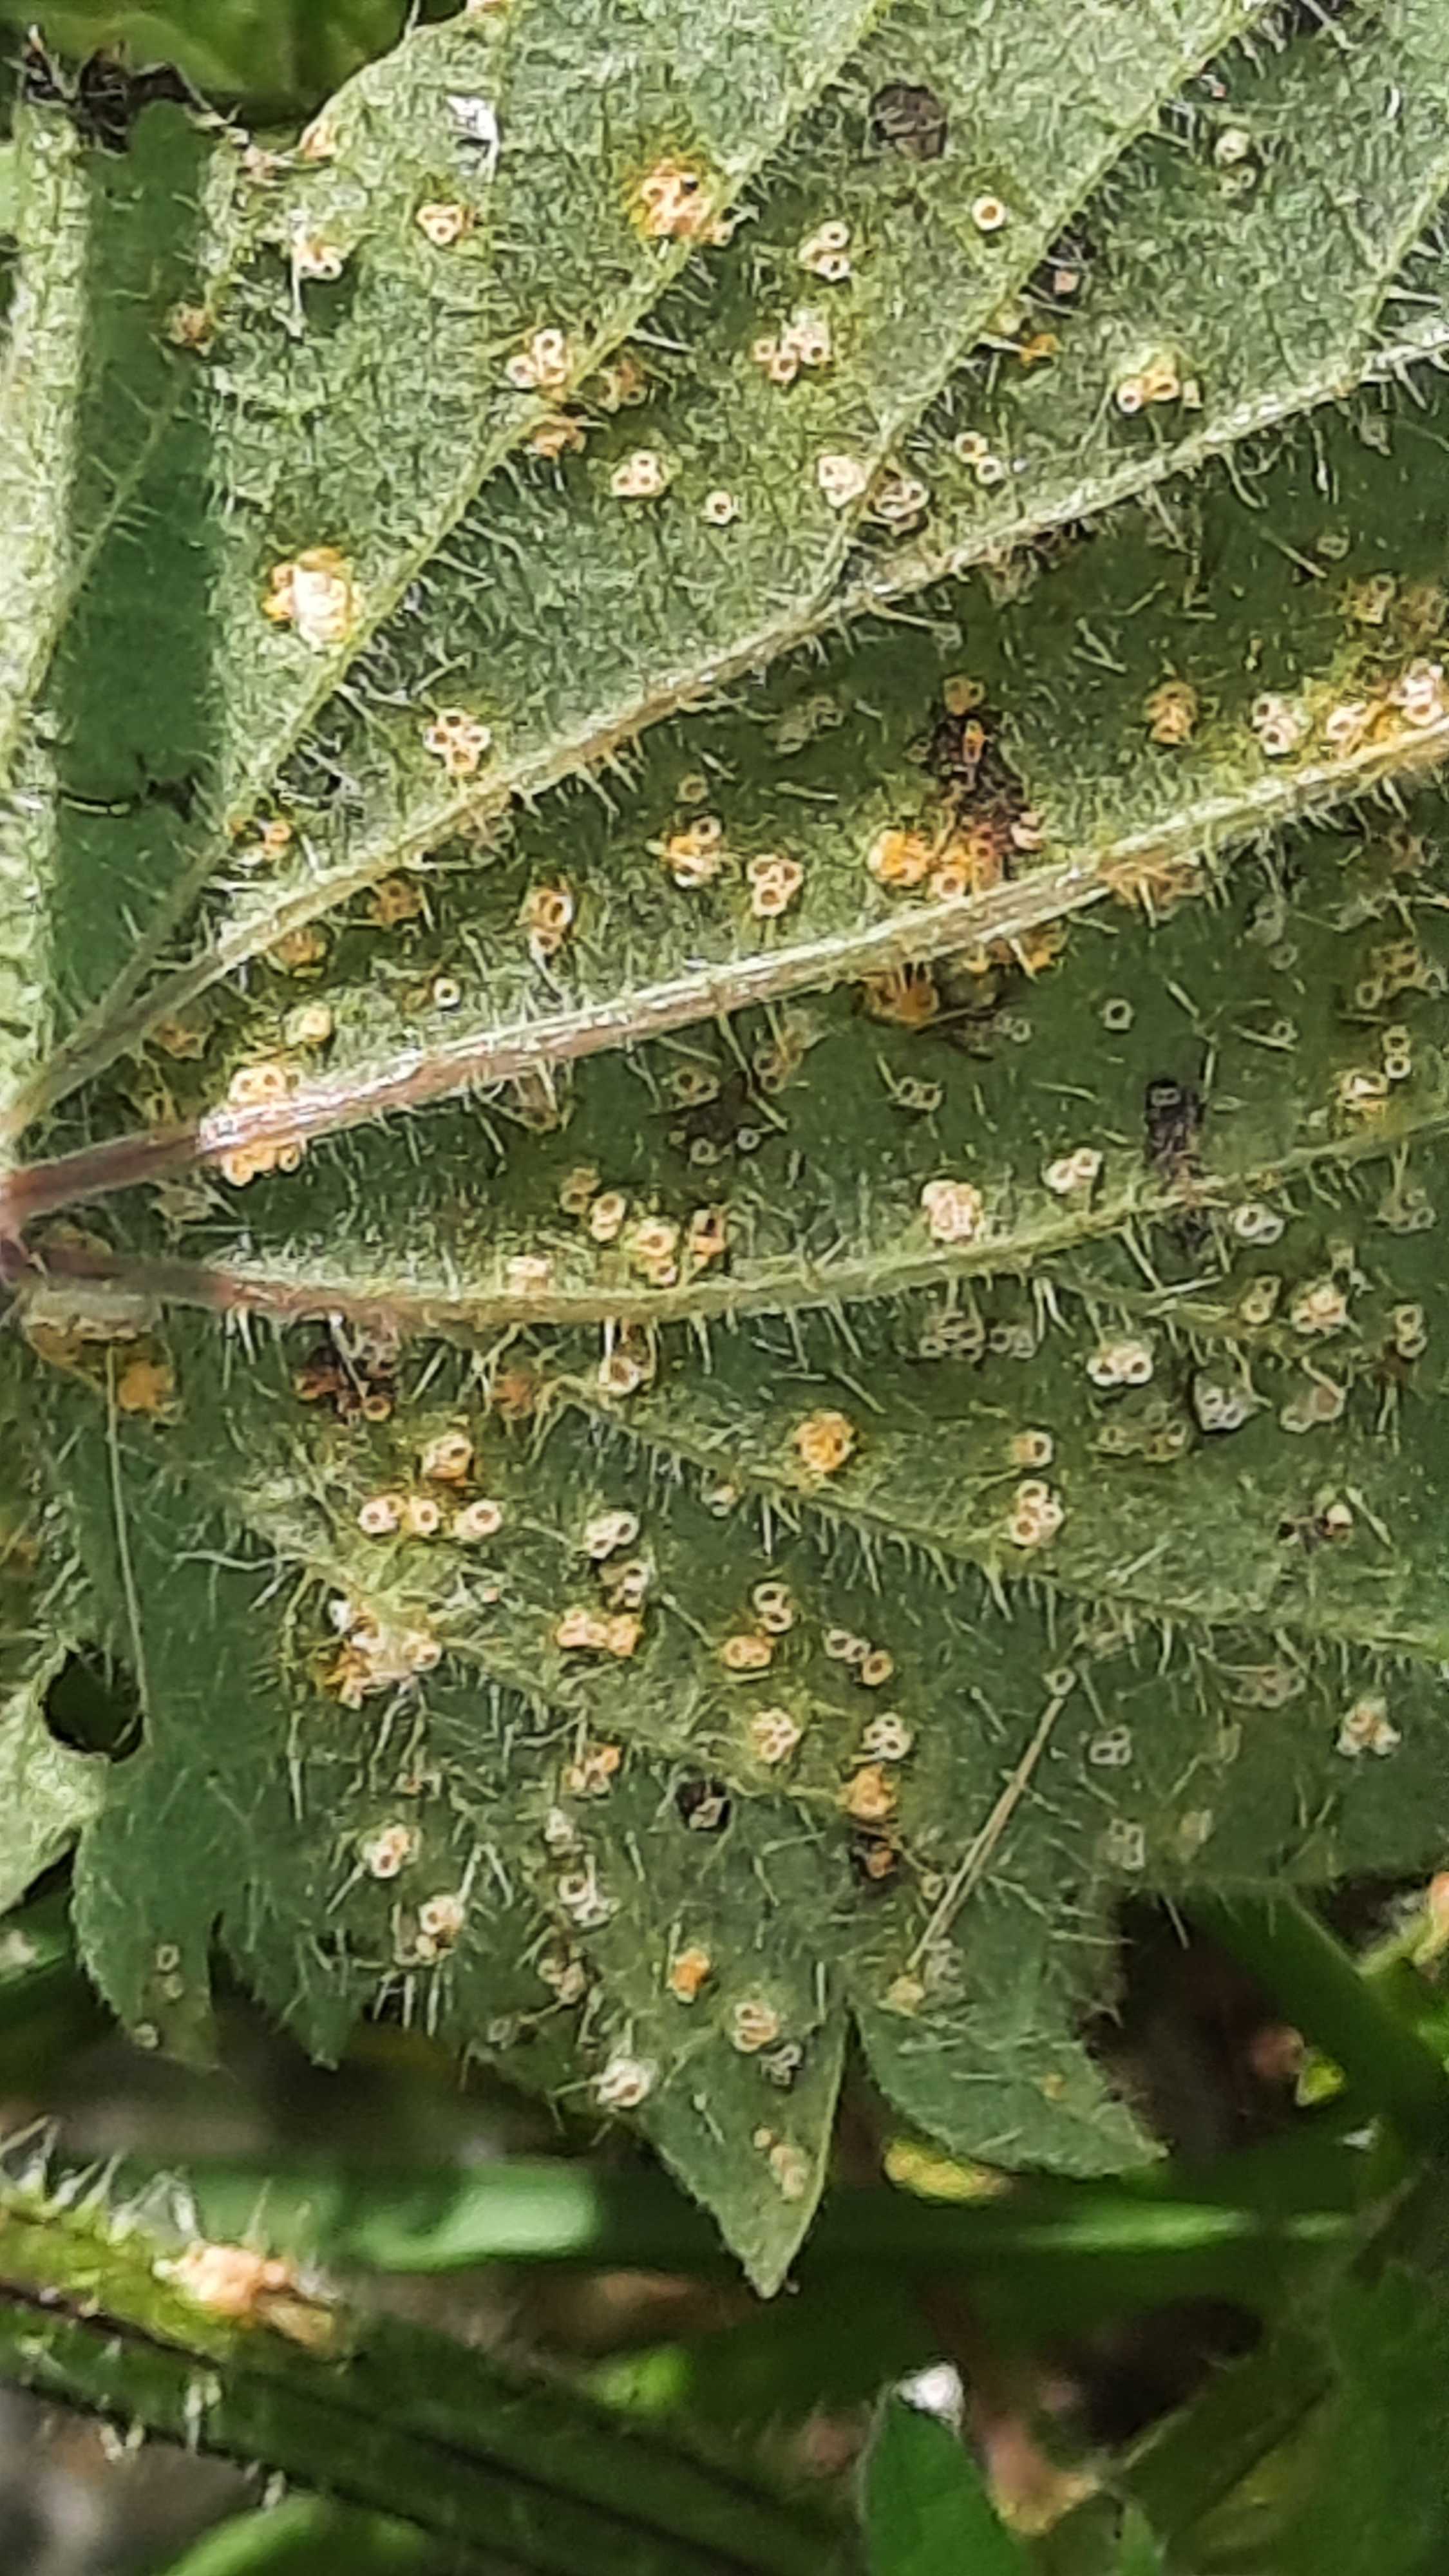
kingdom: Fungi
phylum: Basidiomycota
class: Pucciniomycetes
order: Pucciniales
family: Pucciniaceae
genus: Puccinia
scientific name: Puccinia
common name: tvecellerust
